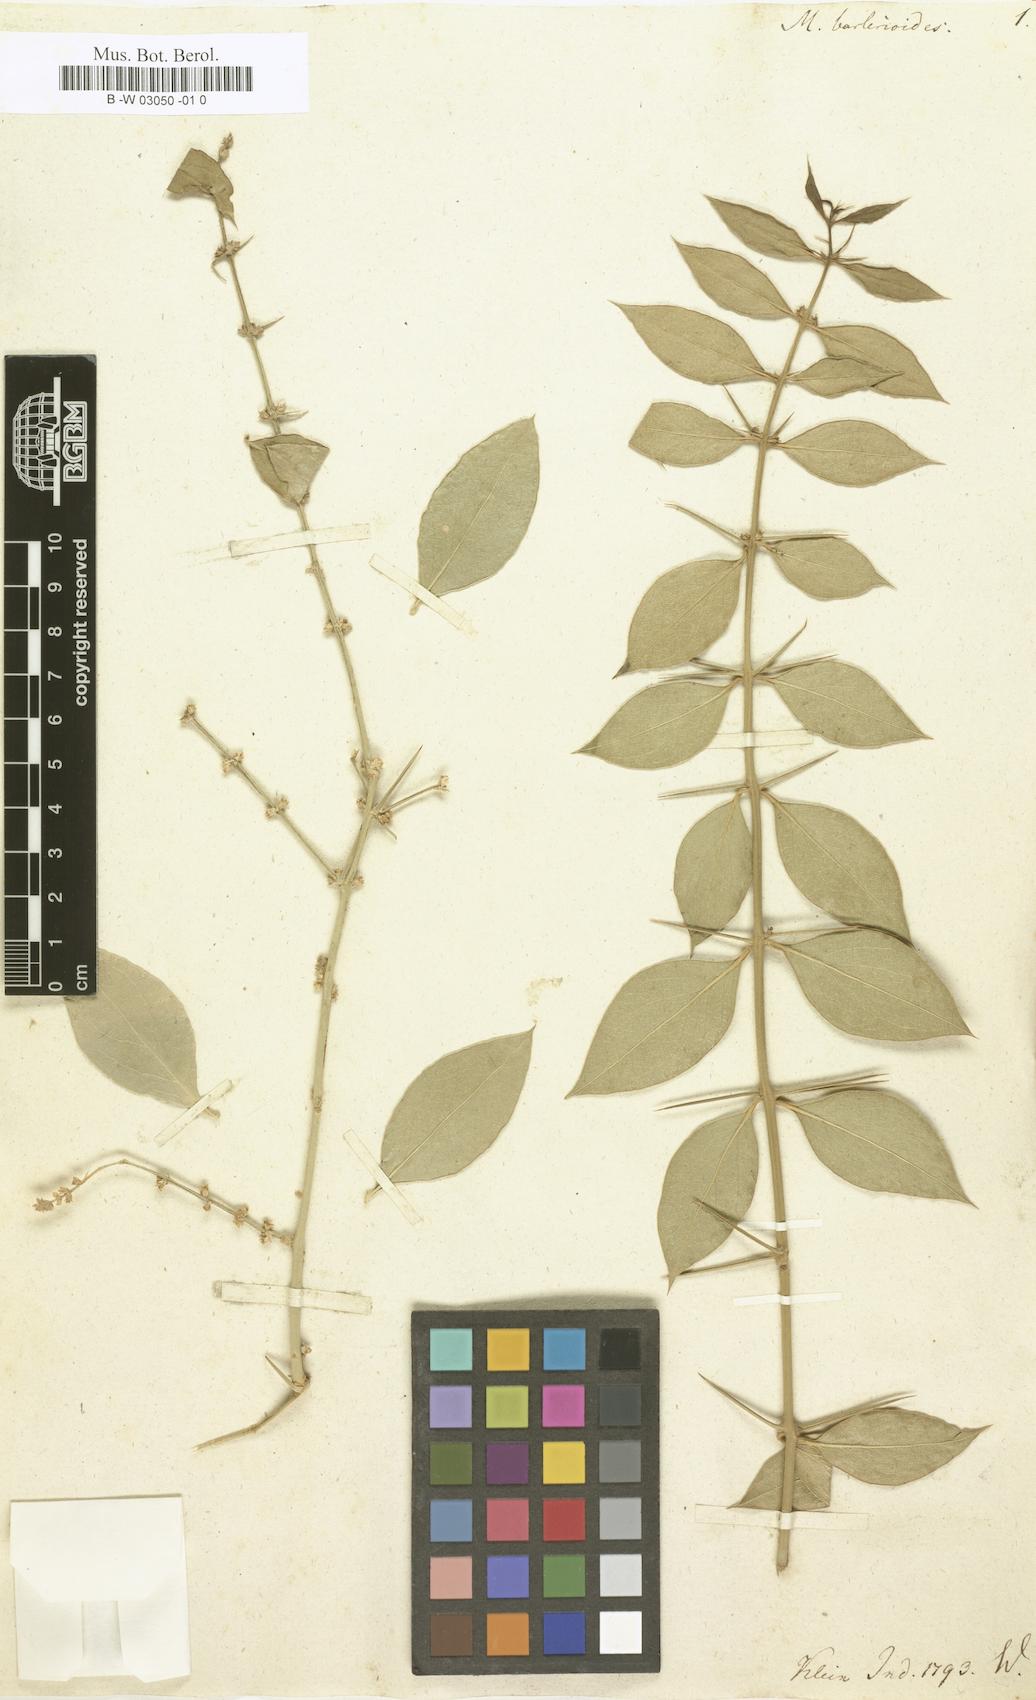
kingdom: Plantae
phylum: Tracheophyta
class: Magnoliopsida
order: Brassicales
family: Salvadoraceae
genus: Azima
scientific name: Azima tetracantha
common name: Needle bush
